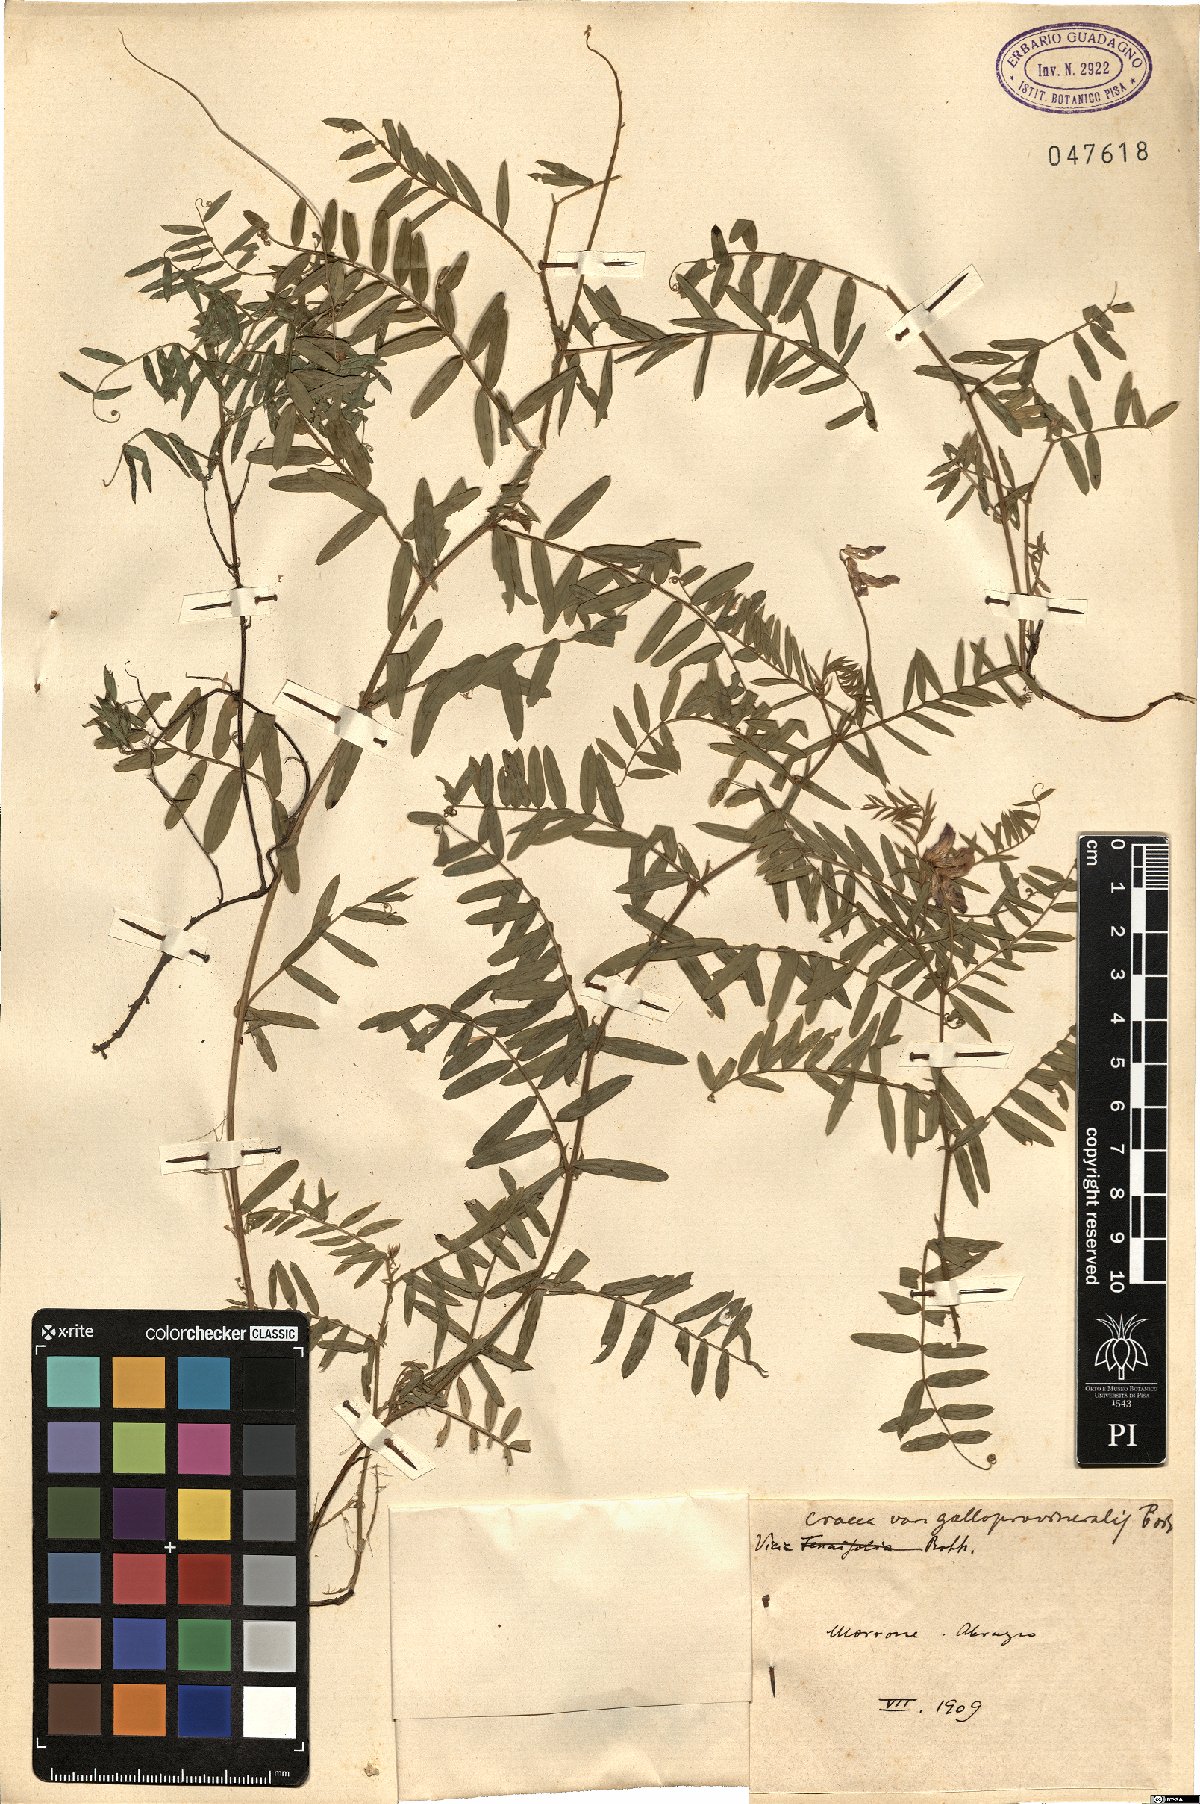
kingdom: Plantae
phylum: Tracheophyta
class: Magnoliopsida
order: Fabales
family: Fabaceae
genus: Vicia
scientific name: Vicia incana
